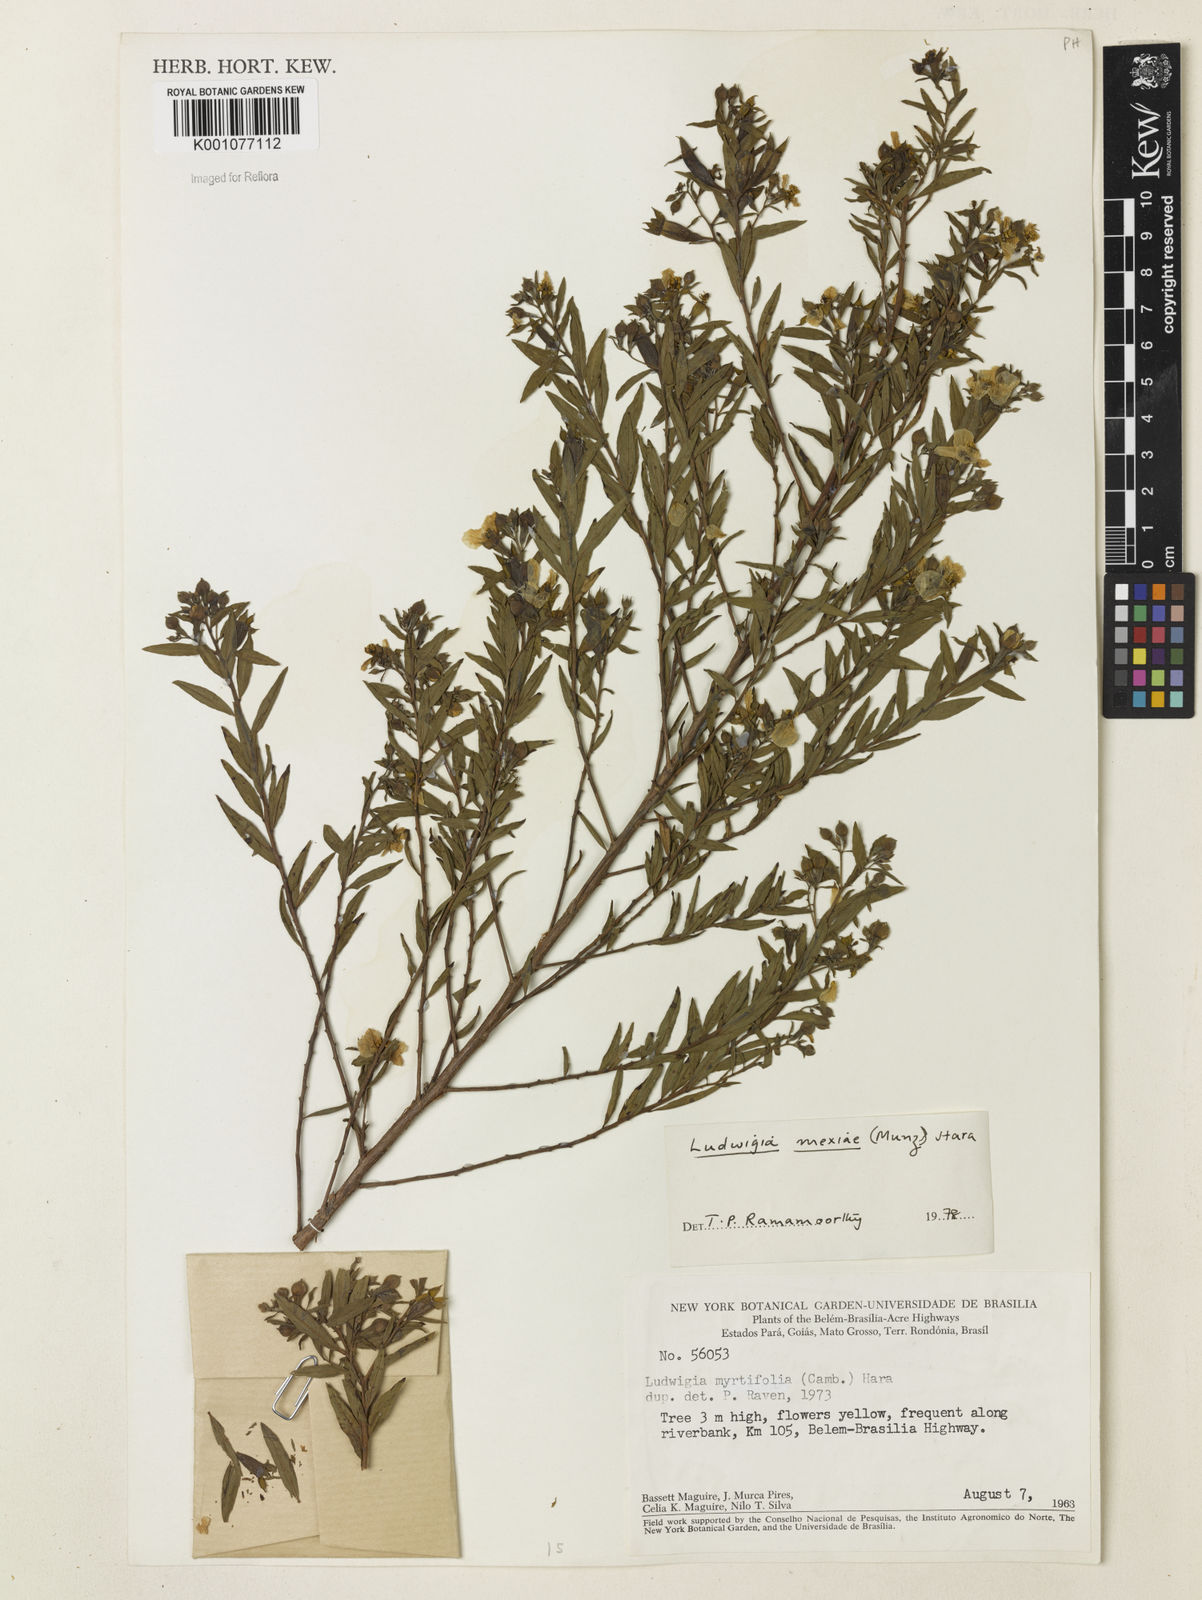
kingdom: Plantae
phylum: Tracheophyta
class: Magnoliopsida
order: Myrtales
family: Onagraceae
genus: Ludwigia
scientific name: Ludwigia mexiae
